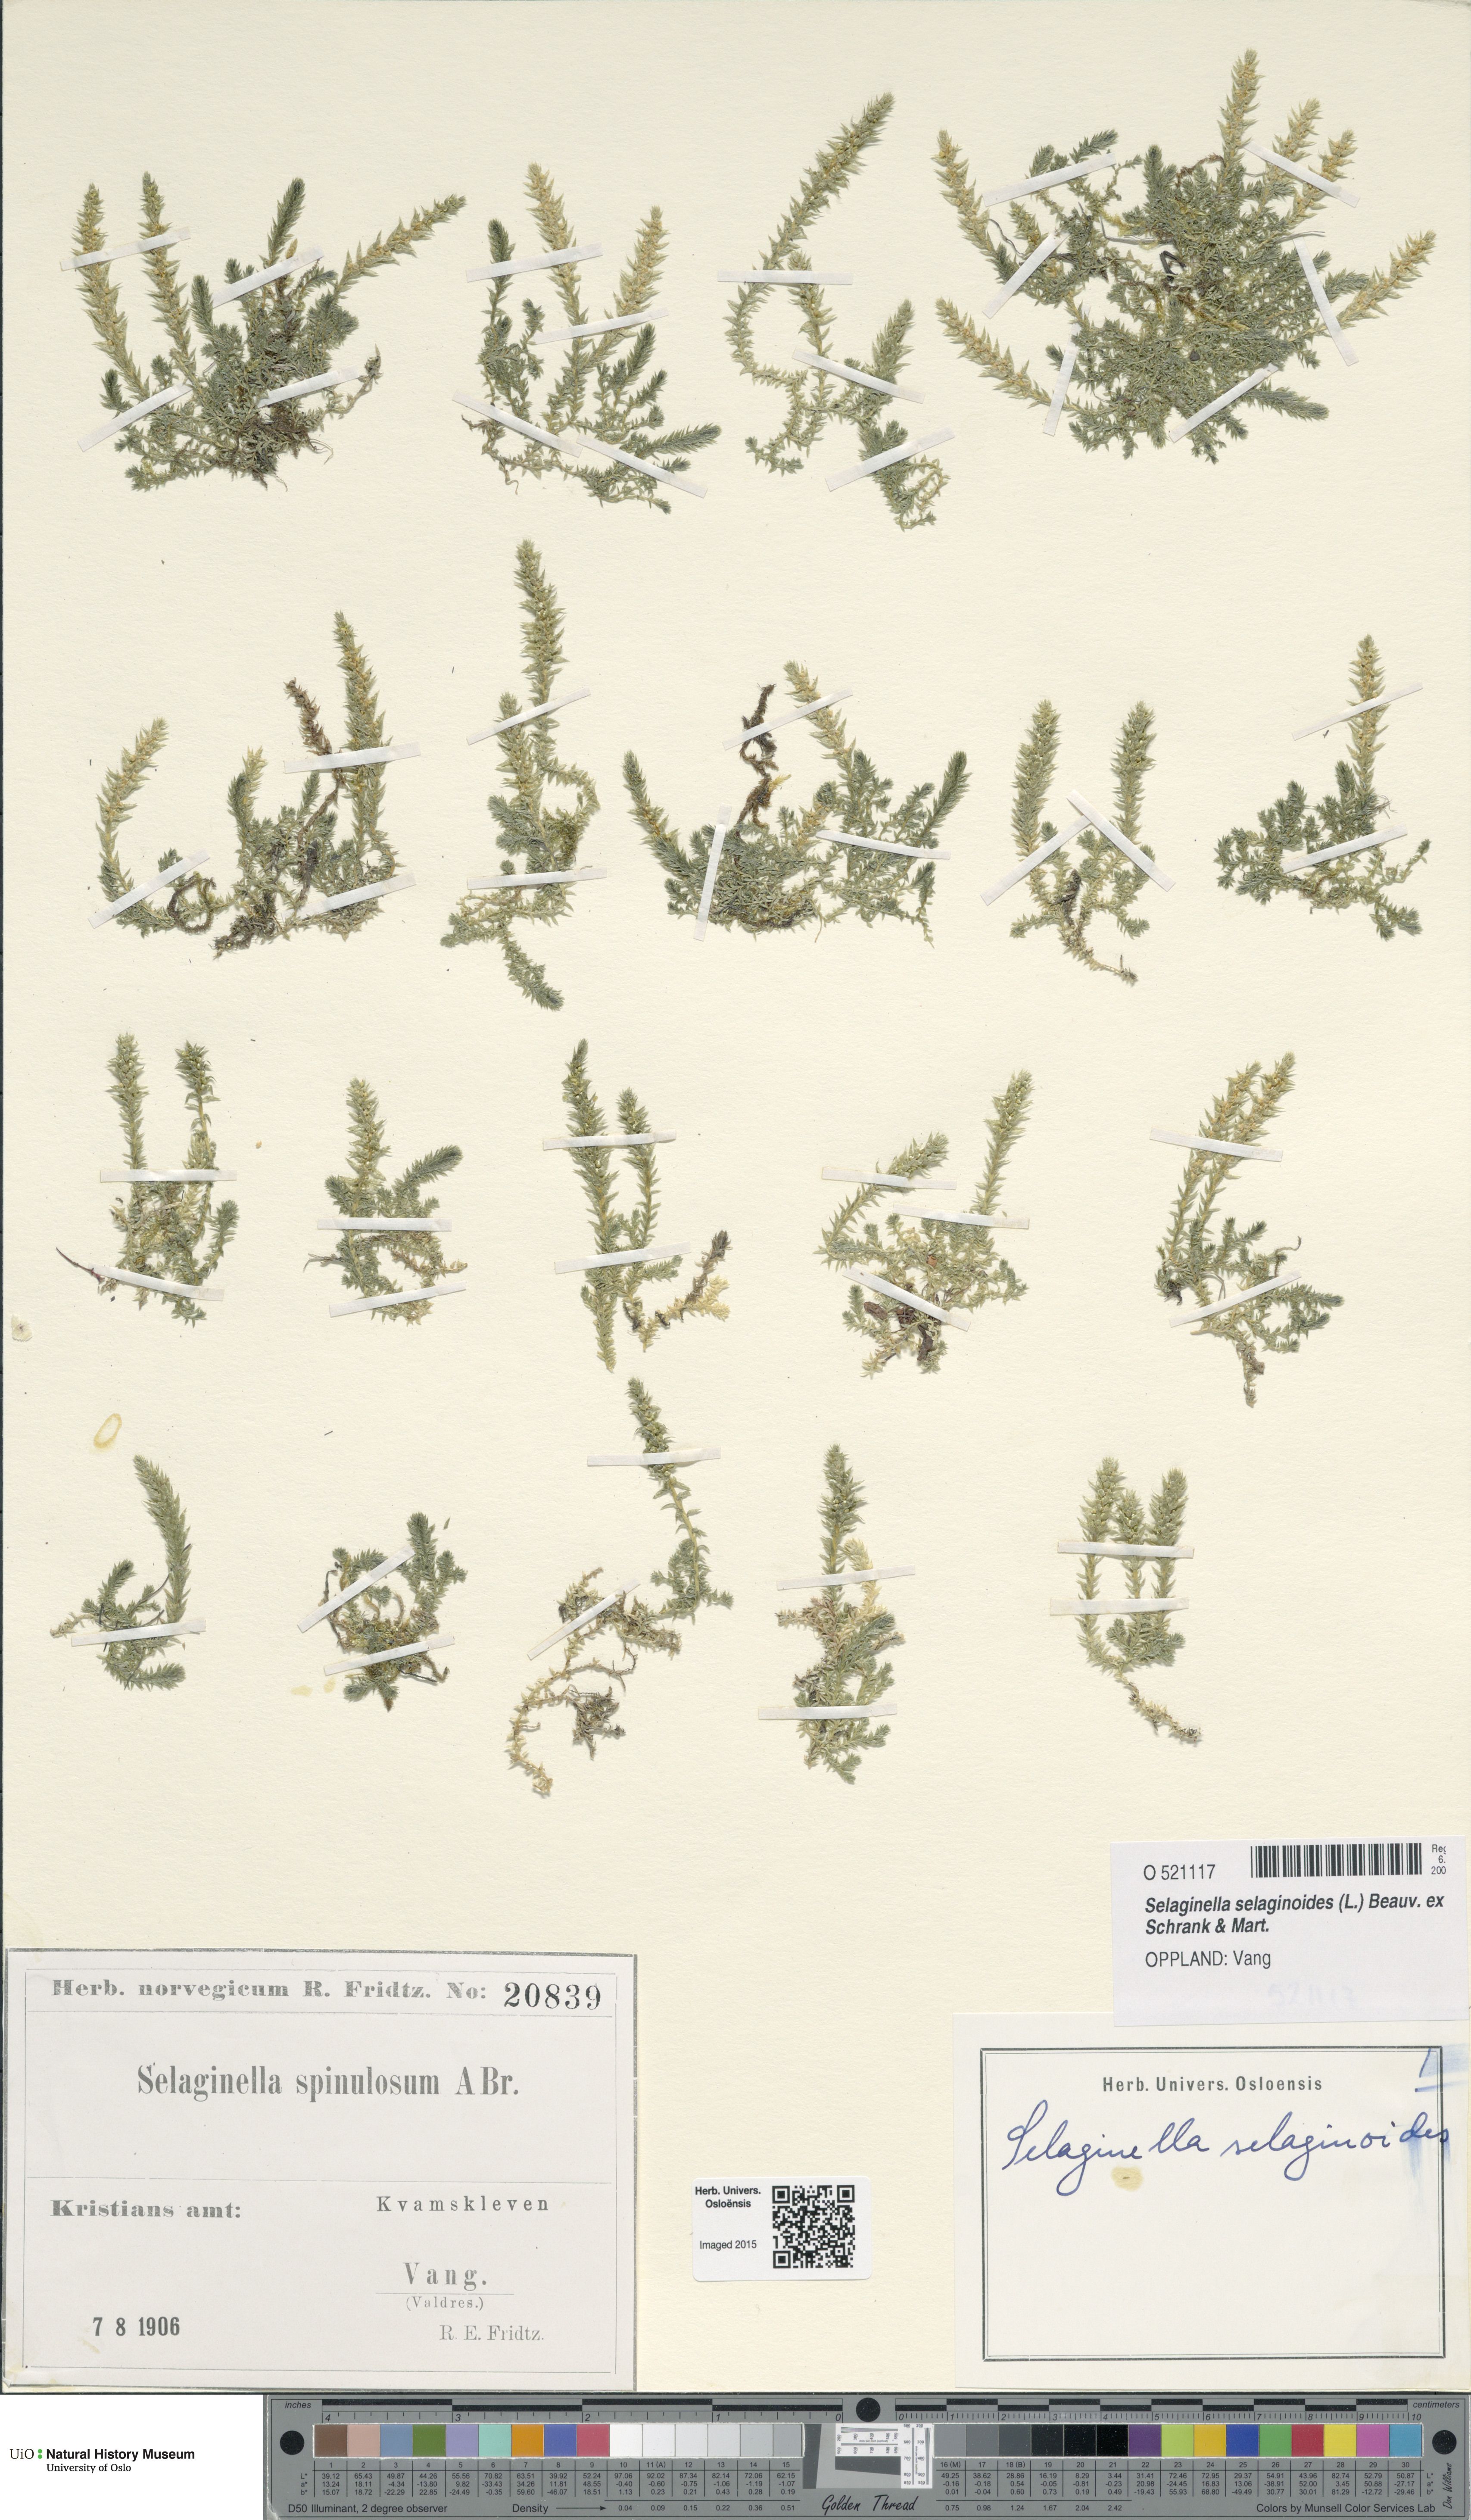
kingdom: Plantae
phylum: Tracheophyta
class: Lycopodiopsida
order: Selaginellales
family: Selaginellaceae
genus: Selaginella
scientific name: Selaginella selaginoides
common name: Prickly mountain-moss
